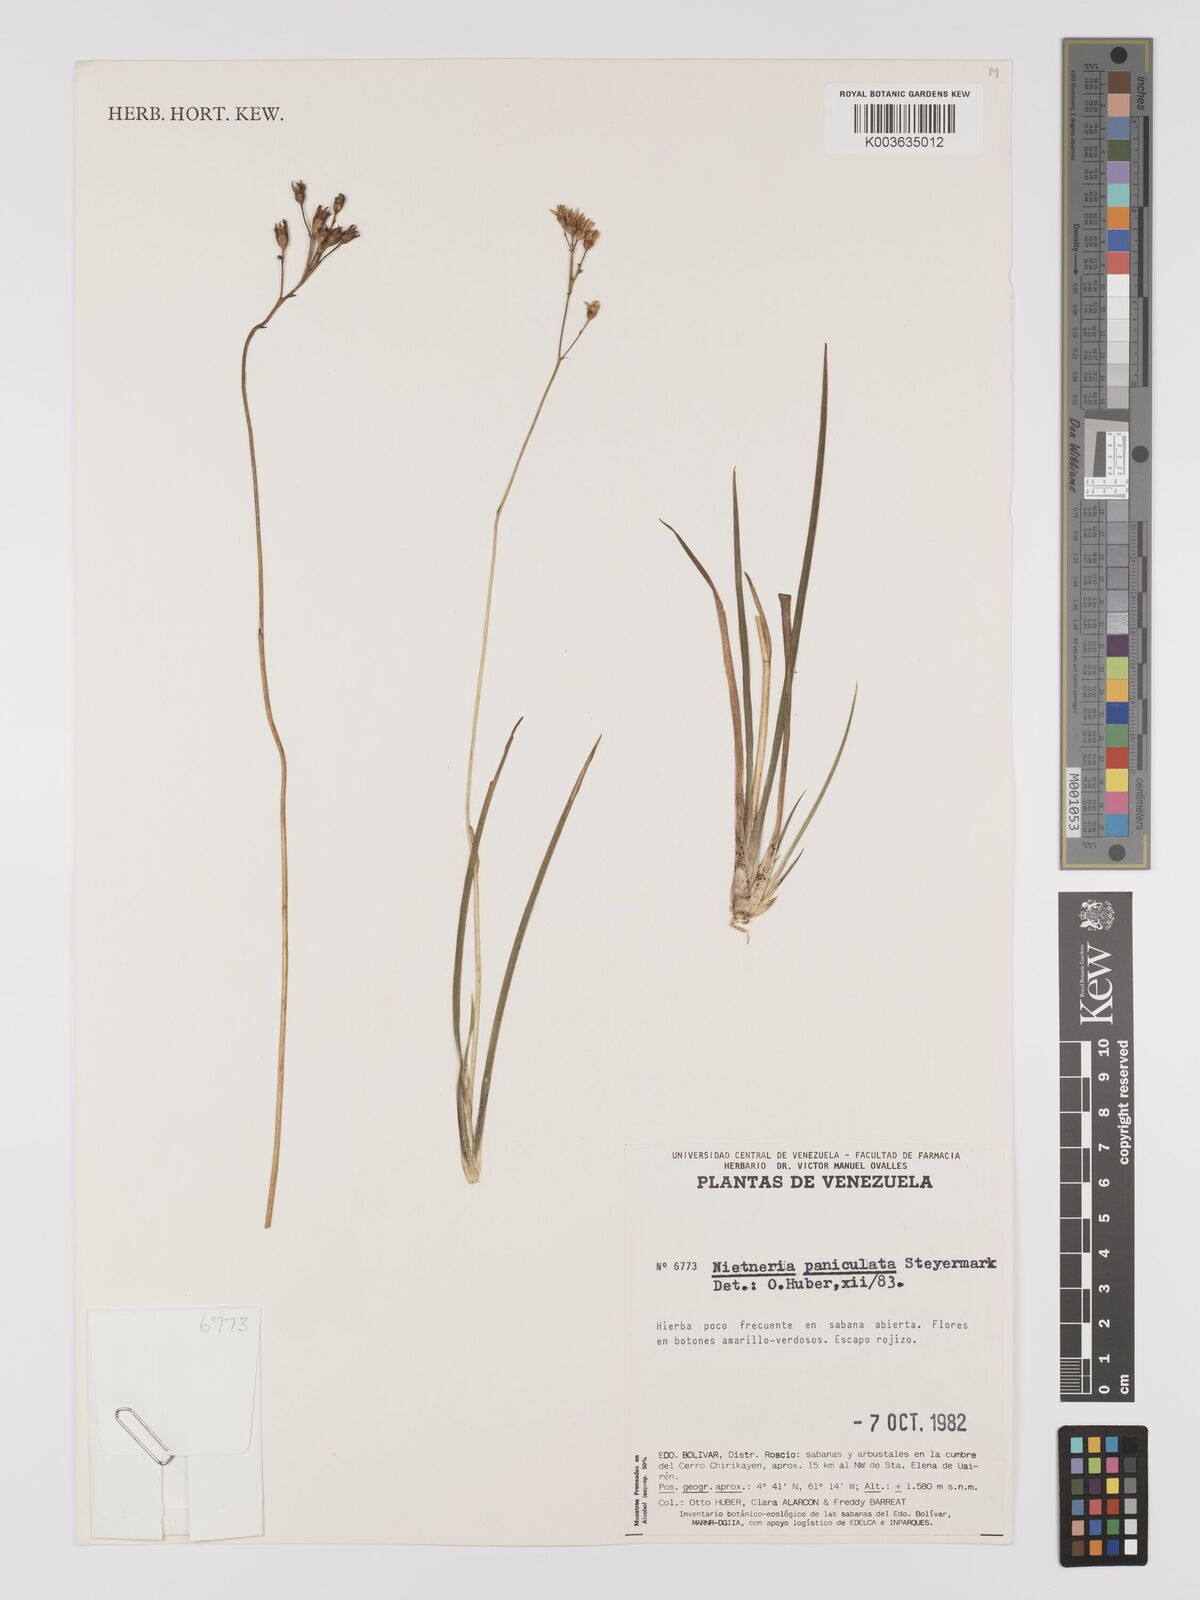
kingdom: Plantae
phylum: Tracheophyta
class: Liliopsida
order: Dioscoreales
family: Nartheciaceae
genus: Nietneria
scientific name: Nietneria paniculata
